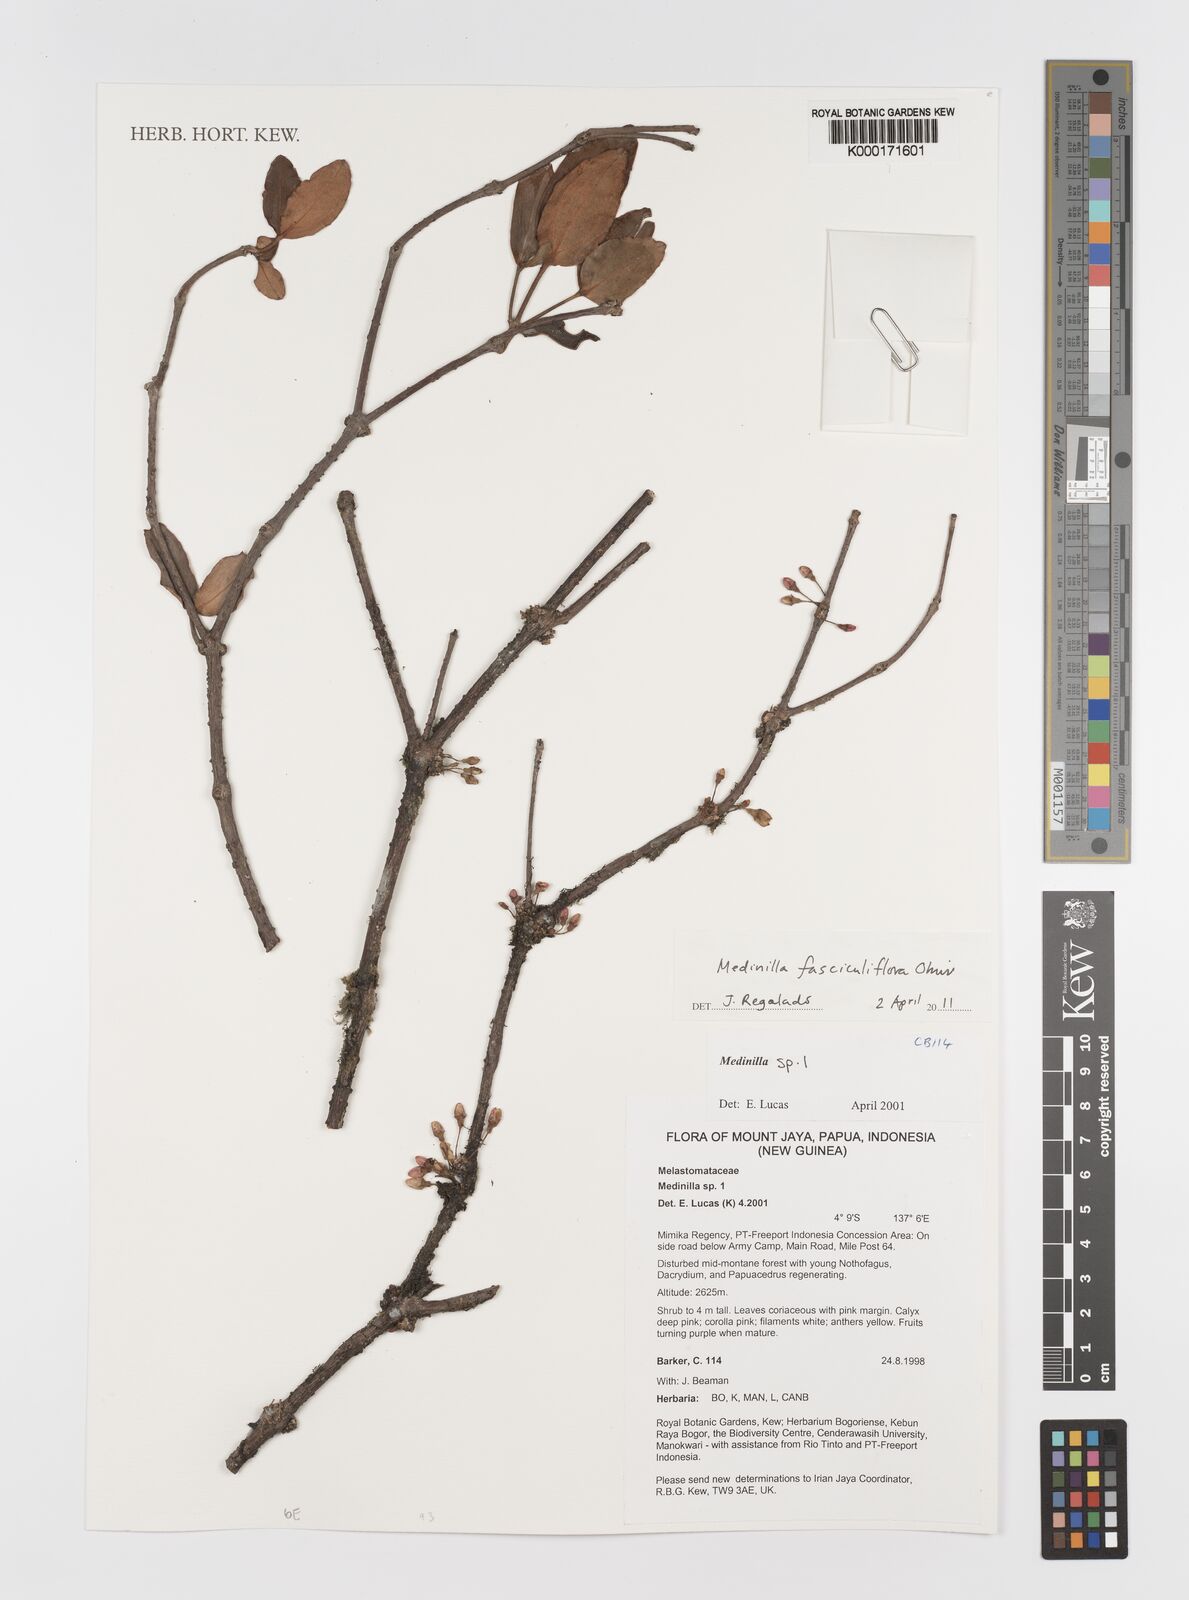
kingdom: Plantae
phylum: Tracheophyta
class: Magnoliopsida
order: Myrtales
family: Melastomataceae
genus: Medinilla
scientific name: Medinilla fasciculiflora
